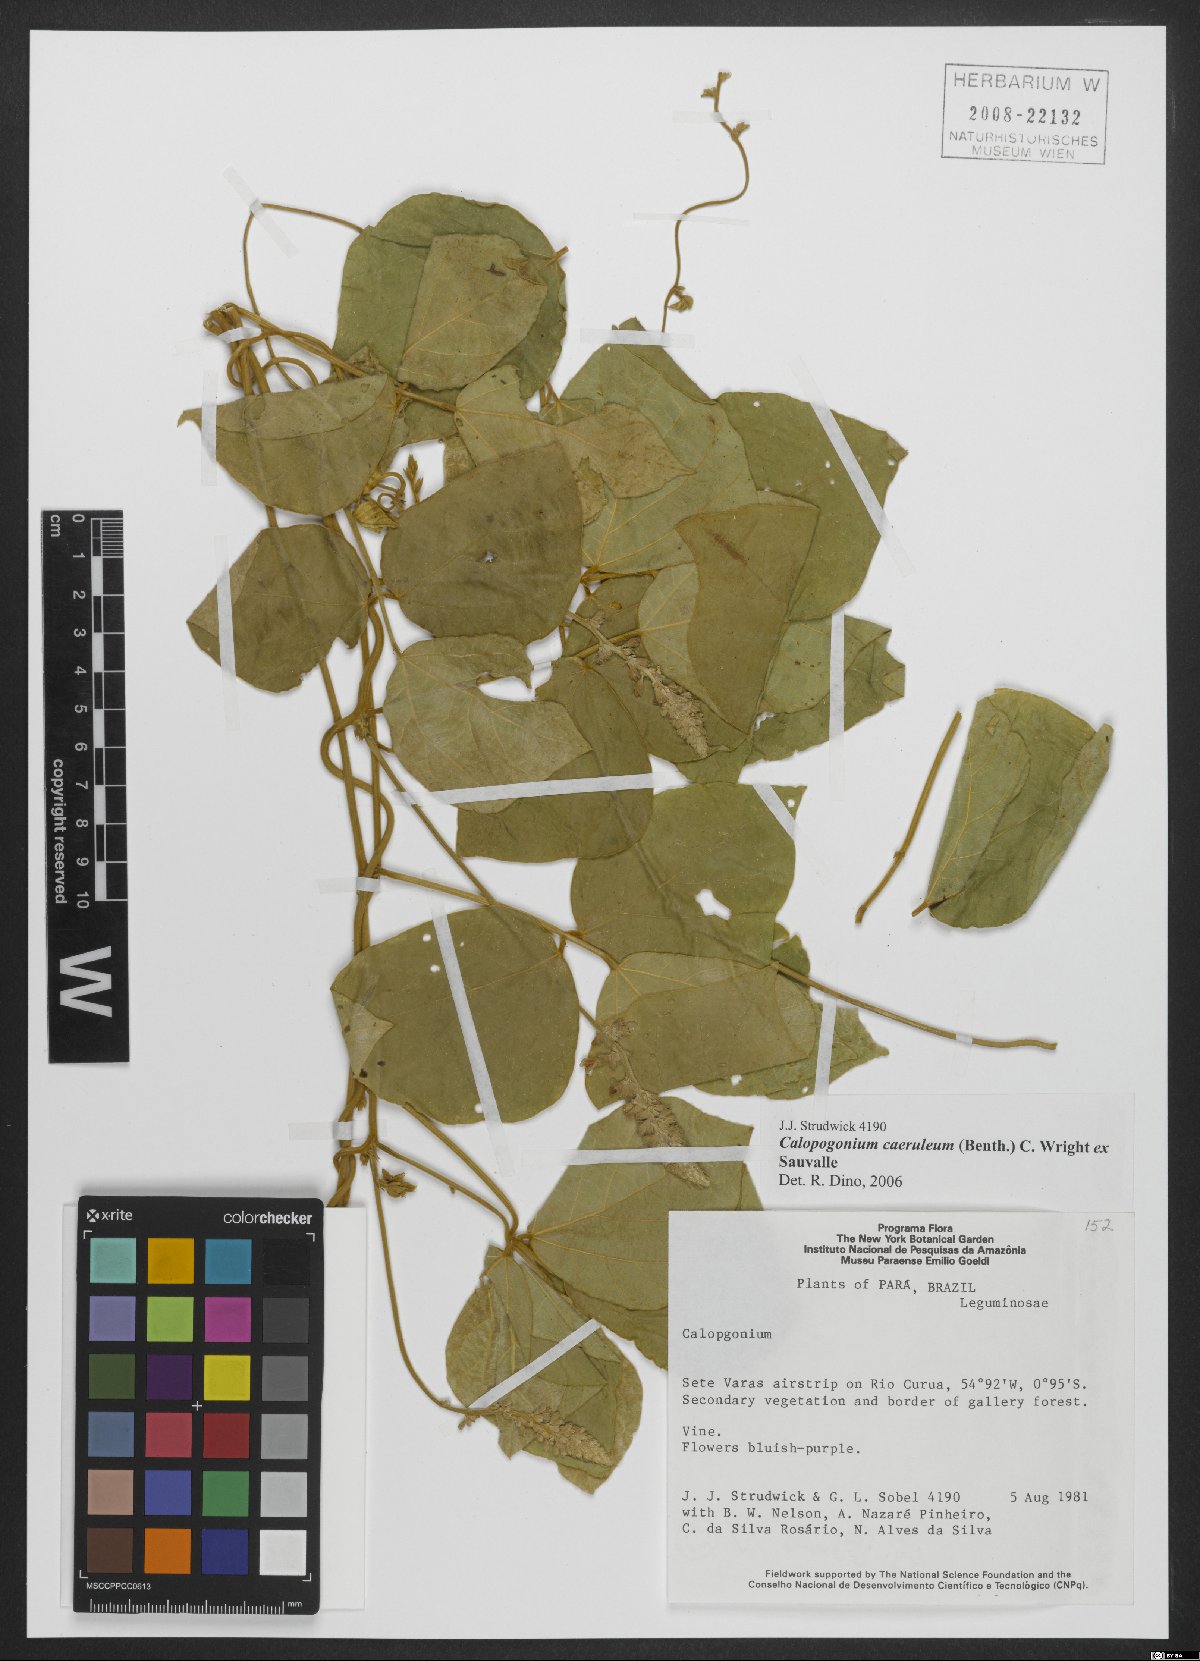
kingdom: Plantae
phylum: Tracheophyta
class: Magnoliopsida
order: Fabales
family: Fabaceae
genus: Calopogonium
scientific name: Calopogonium caeruleum
